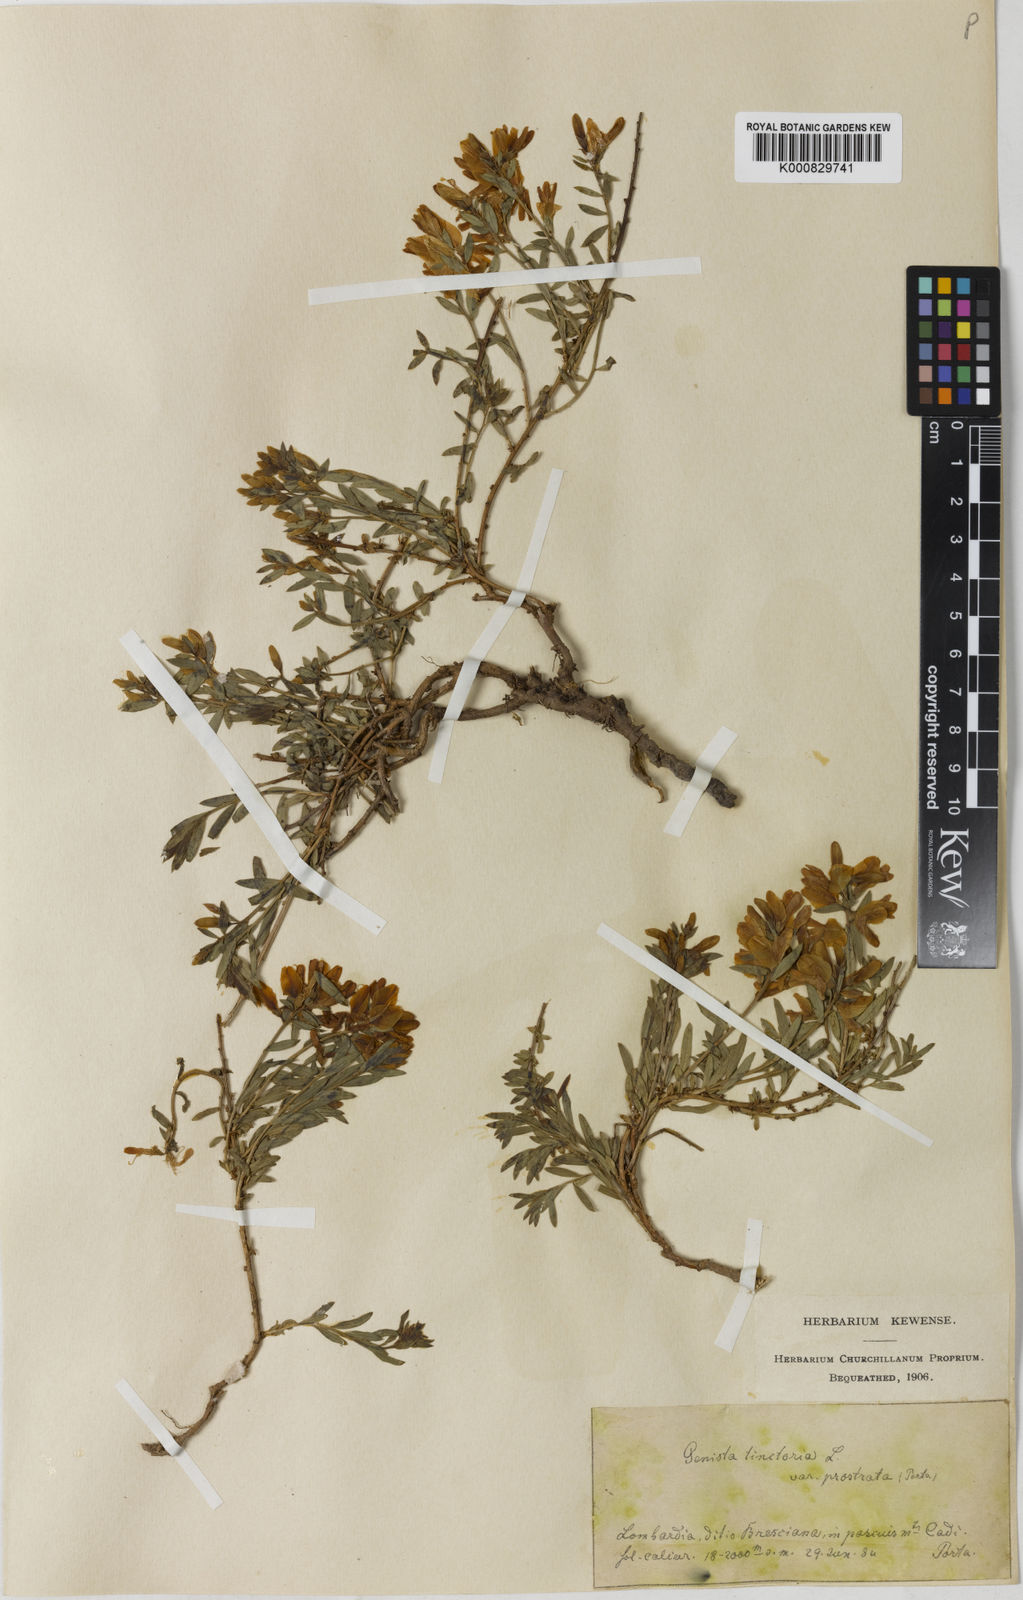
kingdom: Plantae
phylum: Tracheophyta
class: Magnoliopsida
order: Fabales
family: Fabaceae
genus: Genista
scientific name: Genista tinctoria
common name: Dyer's greenweed
